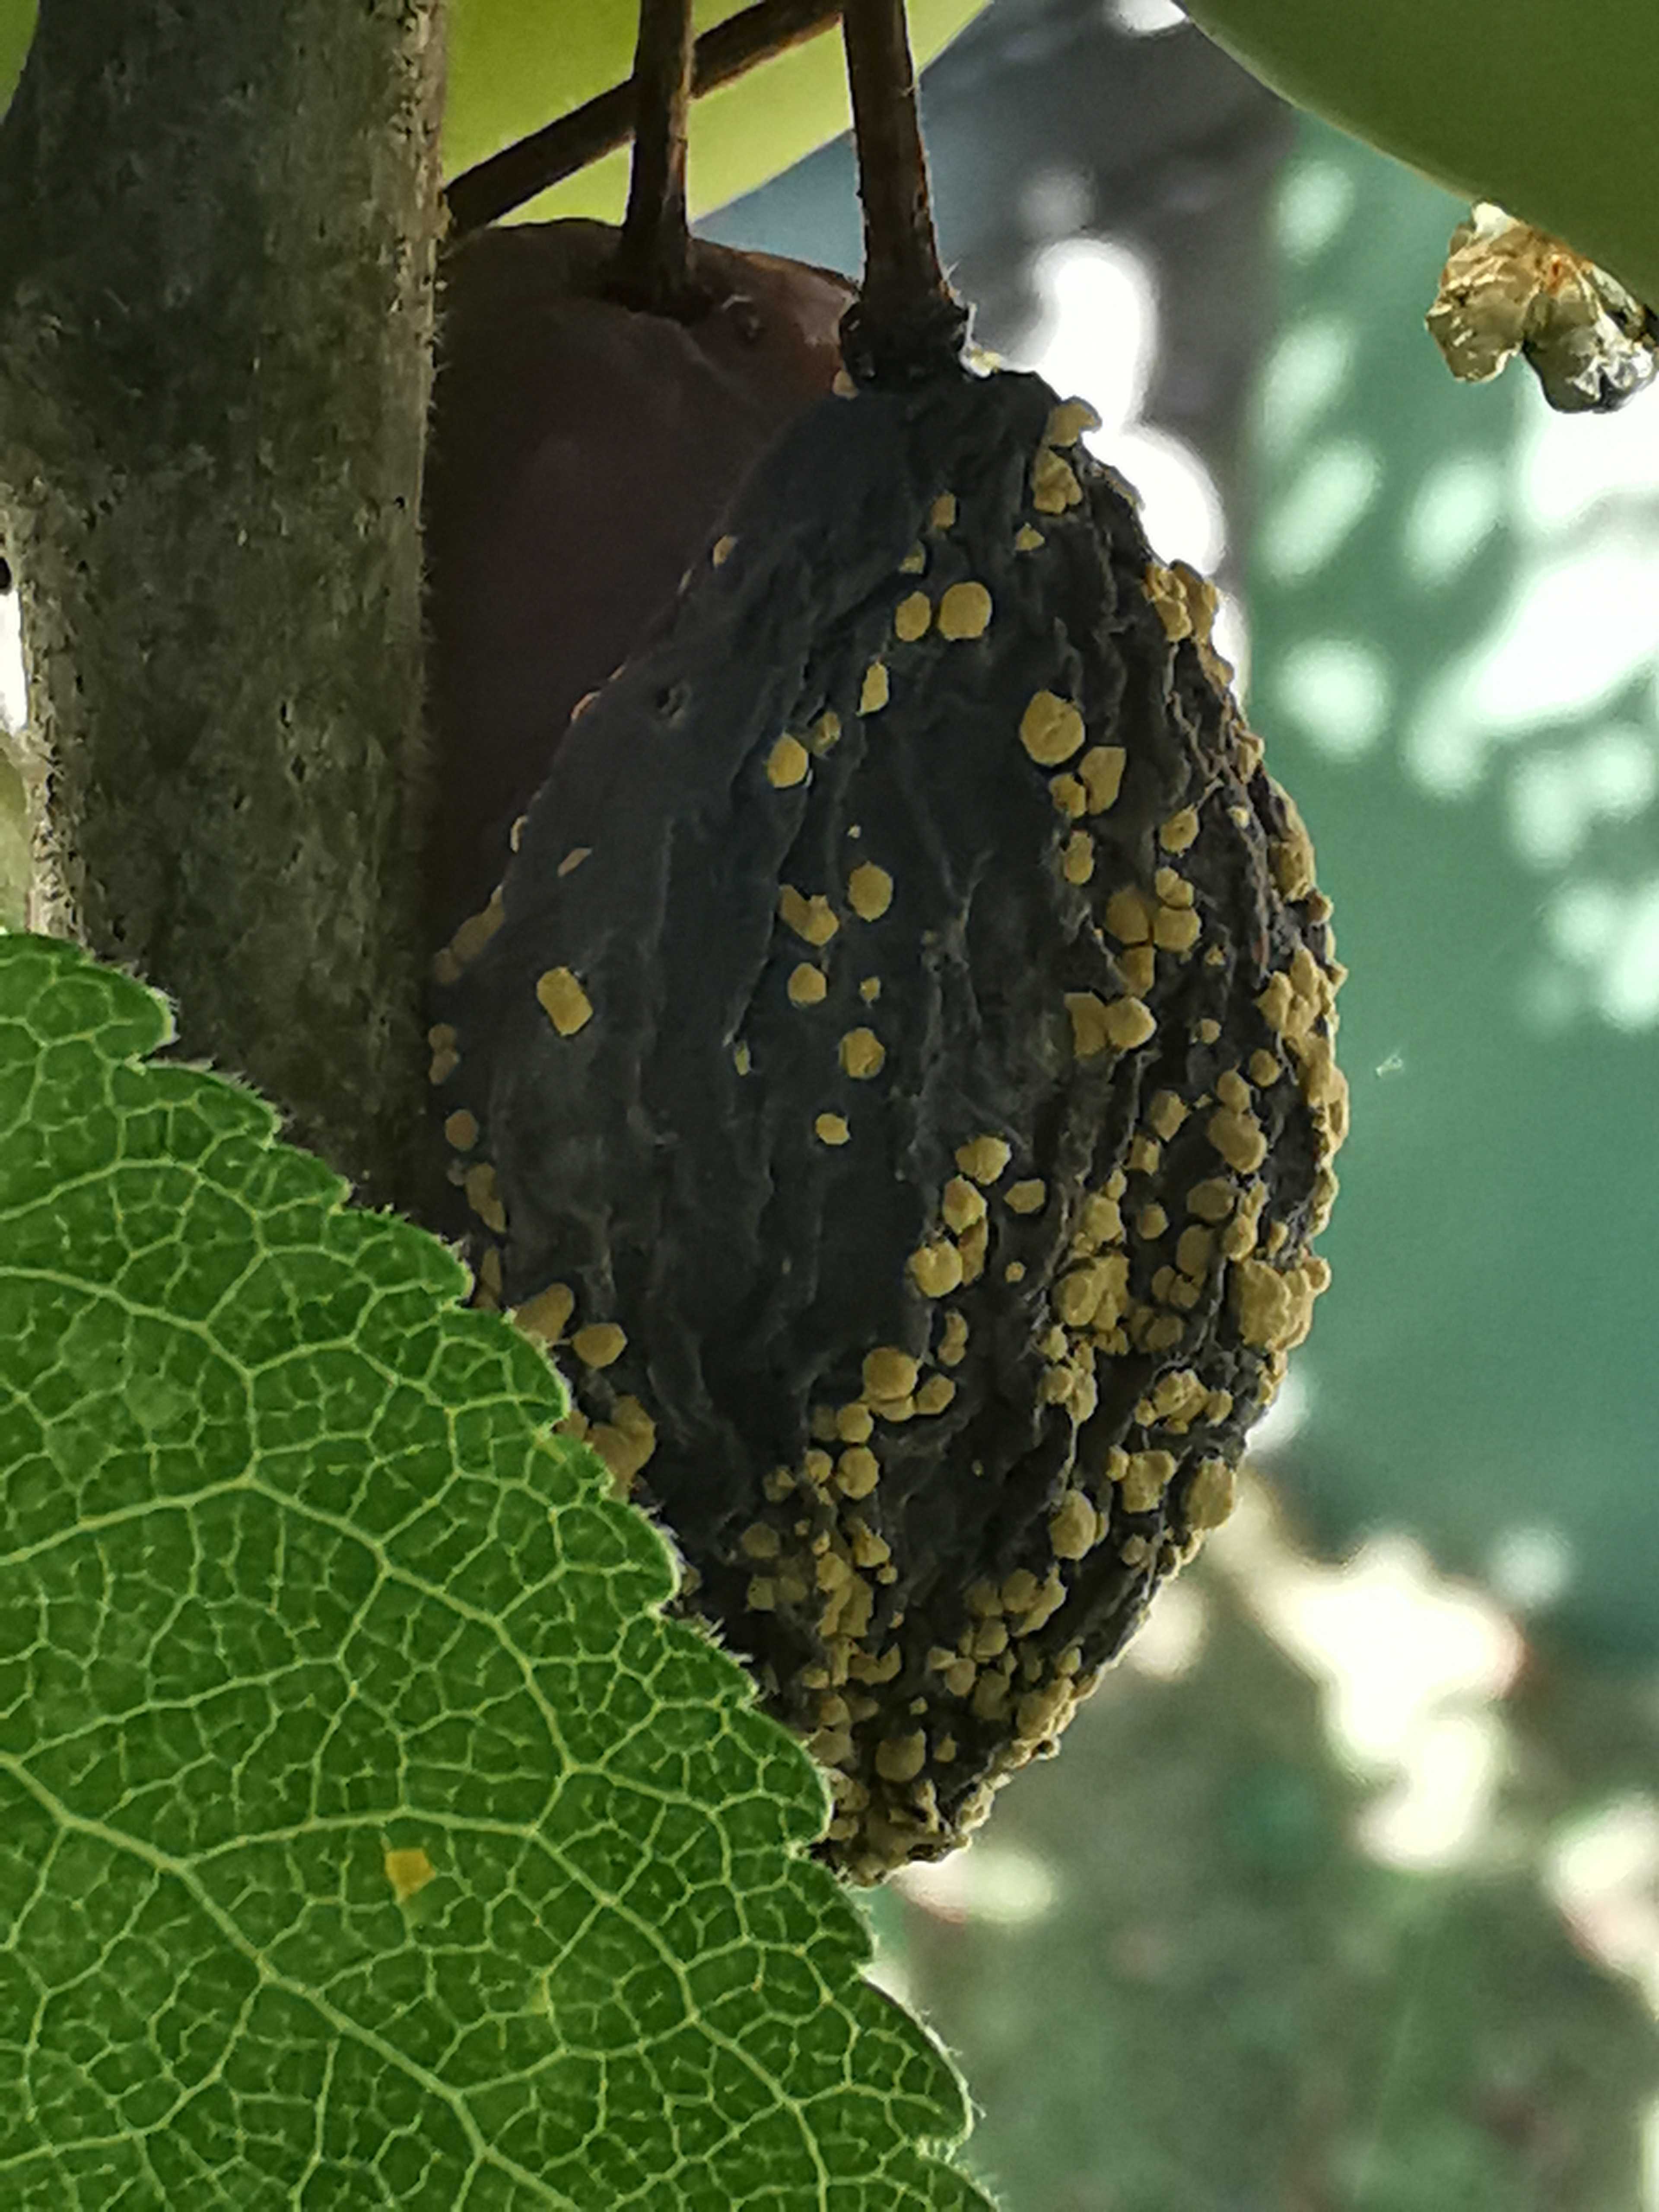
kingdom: Fungi
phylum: Ascomycota
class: Leotiomycetes
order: Helotiales
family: Sclerotiniaceae
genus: Monilinia
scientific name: Monilinia laxa
